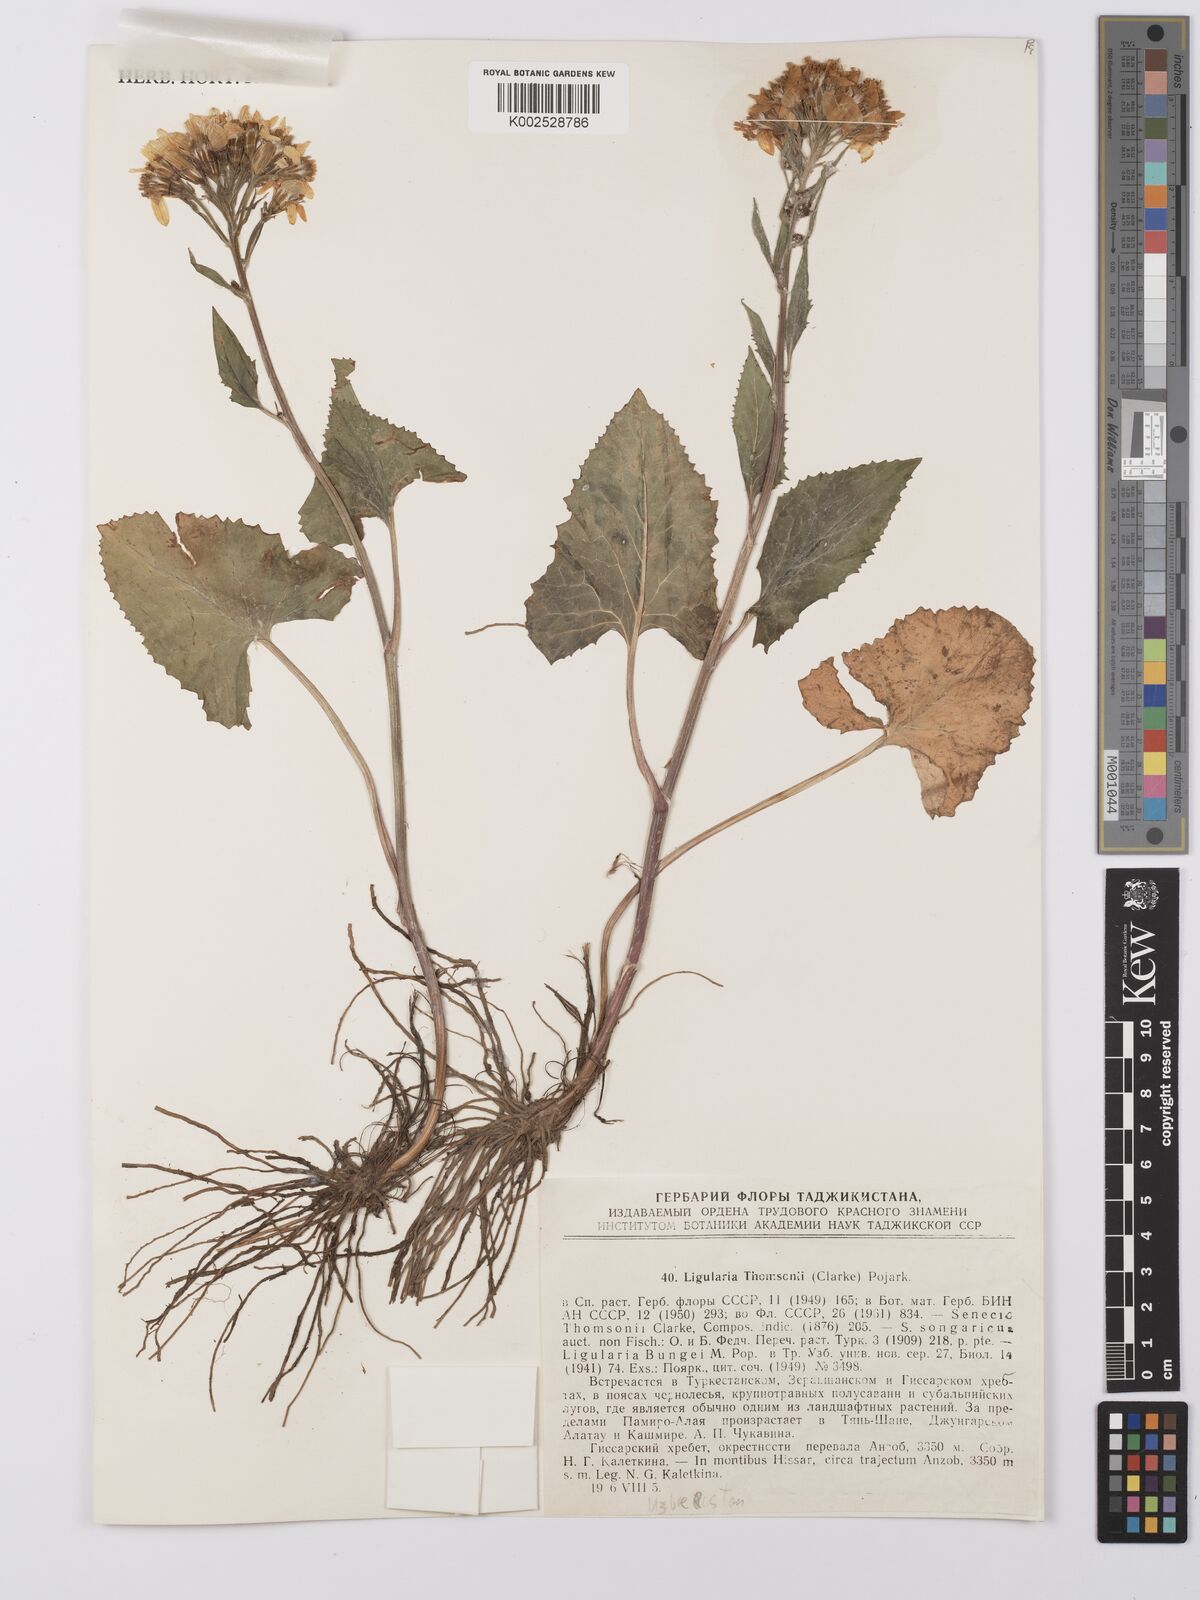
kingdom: Plantae
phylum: Tracheophyta
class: Magnoliopsida
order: Asterales
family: Asteraceae
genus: Vickifunkia
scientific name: Vickifunkia thomsonii
